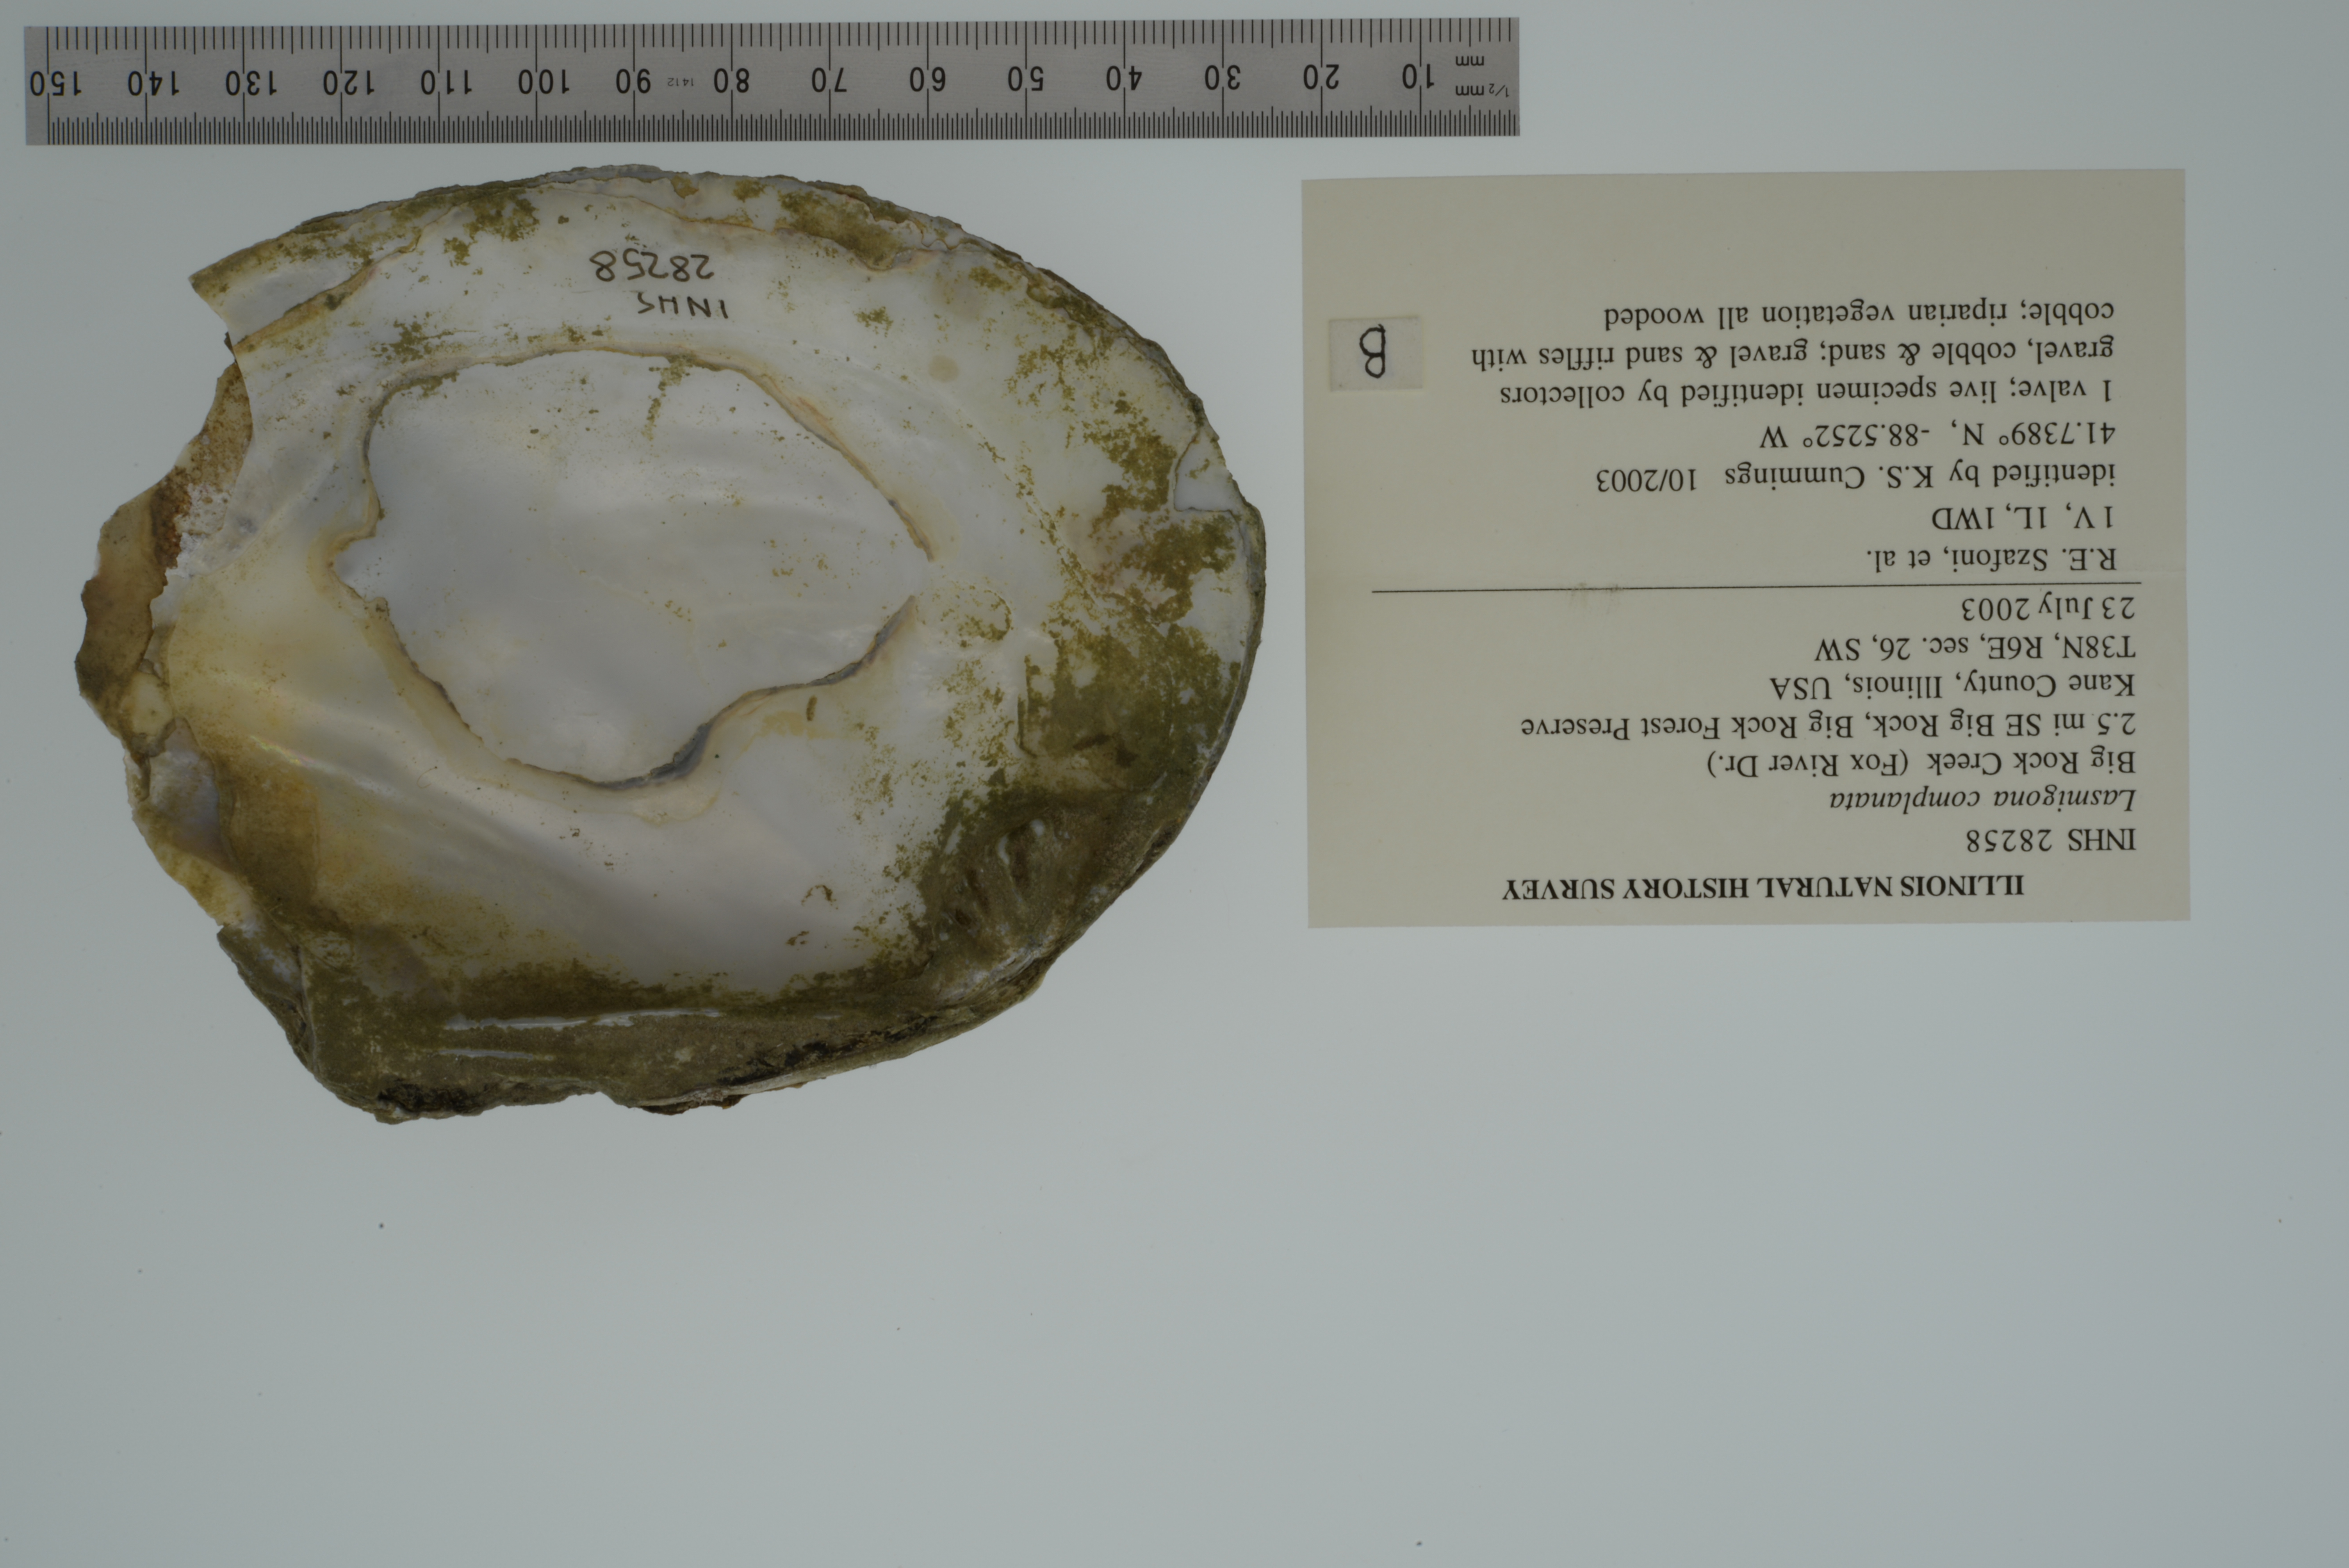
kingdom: Animalia
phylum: Mollusca
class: Gastropoda
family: Pachychilidae
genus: Pachychilus
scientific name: Pachychilus obeliscus
